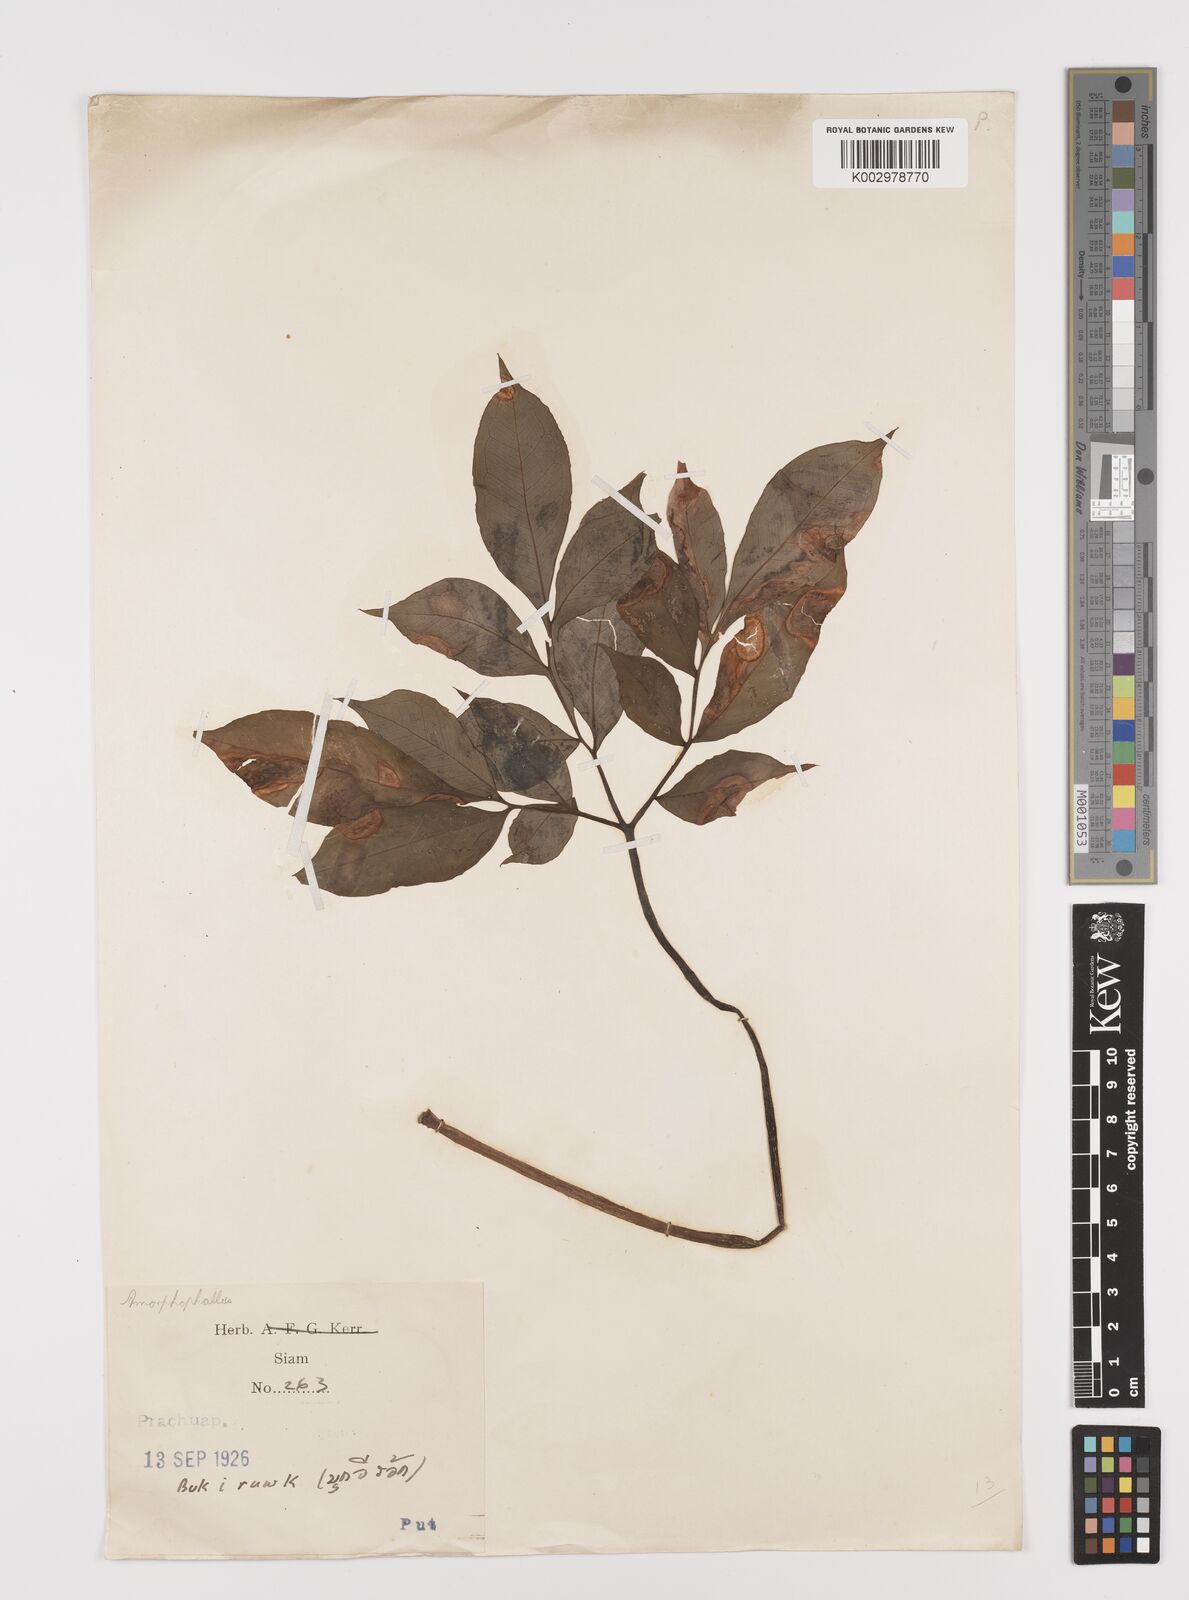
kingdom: Plantae
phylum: Tracheophyta
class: Liliopsida
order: Alismatales
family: Araceae
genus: Amorphophallus
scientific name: Amorphophallus
